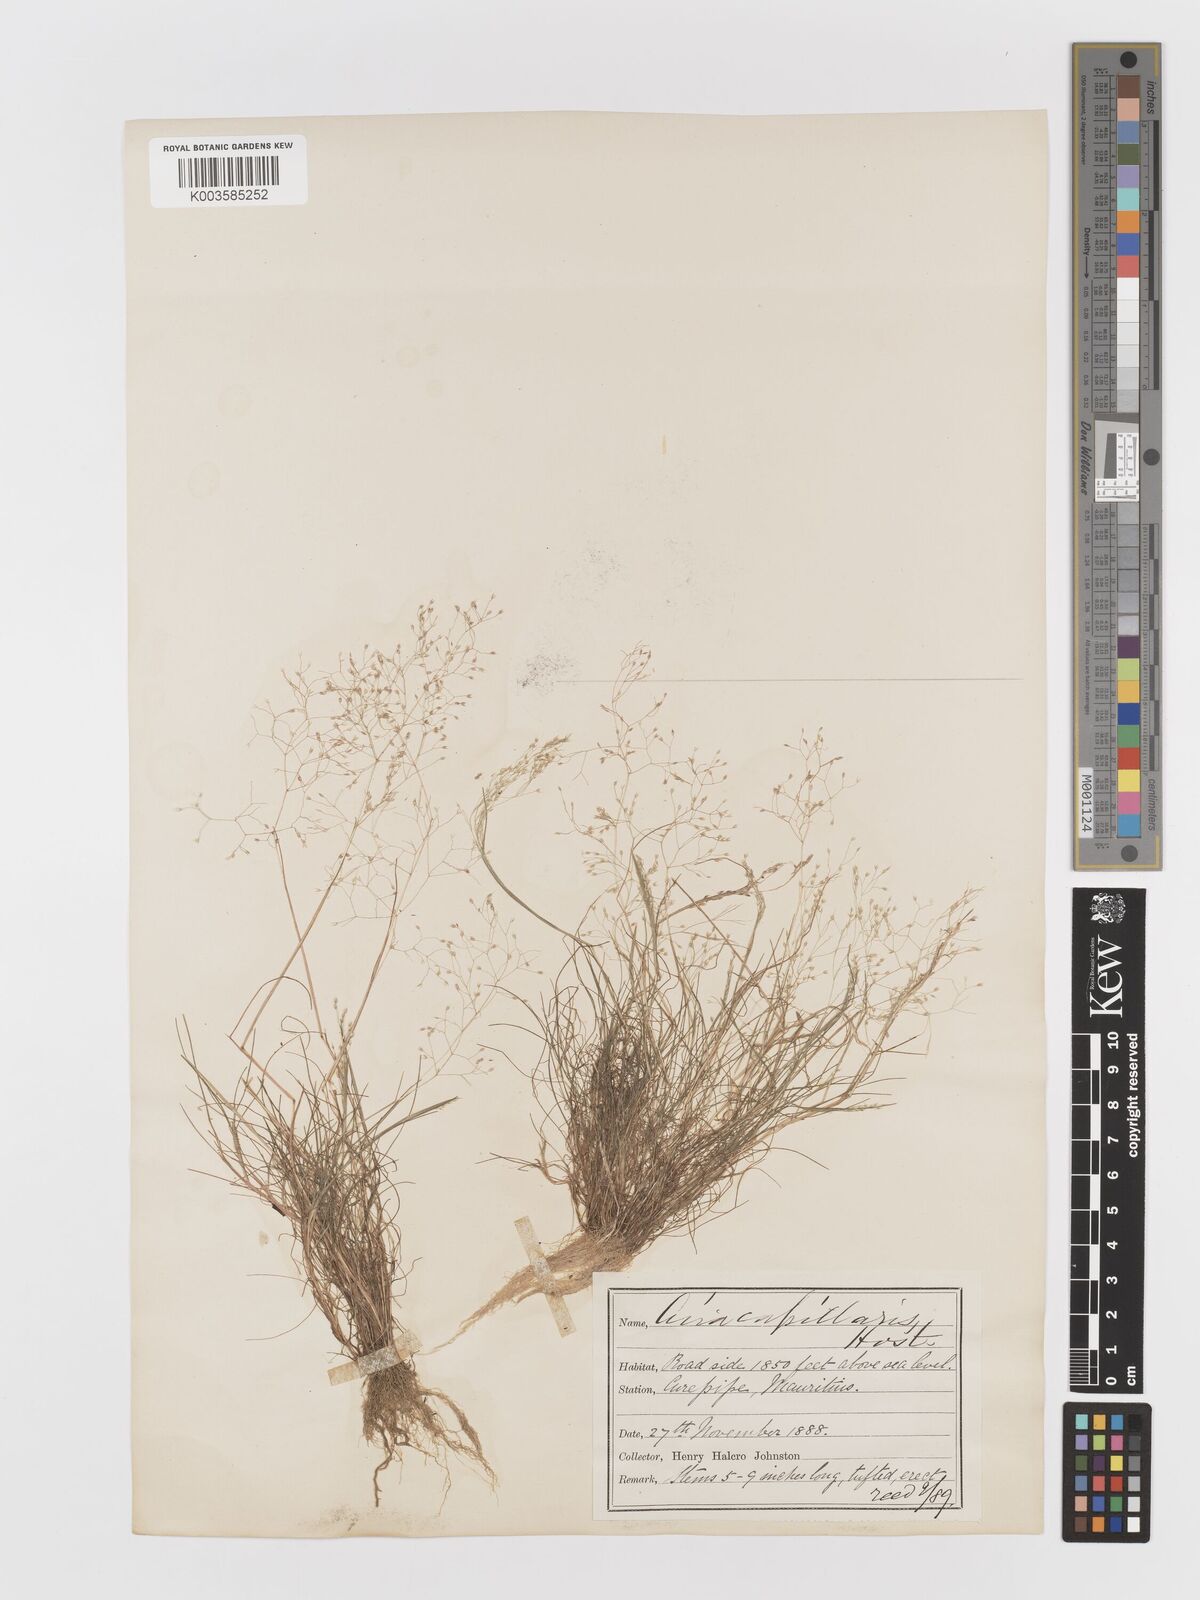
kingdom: Plantae
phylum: Tracheophyta
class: Liliopsida
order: Poales
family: Poaceae
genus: Aira
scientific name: Aira
